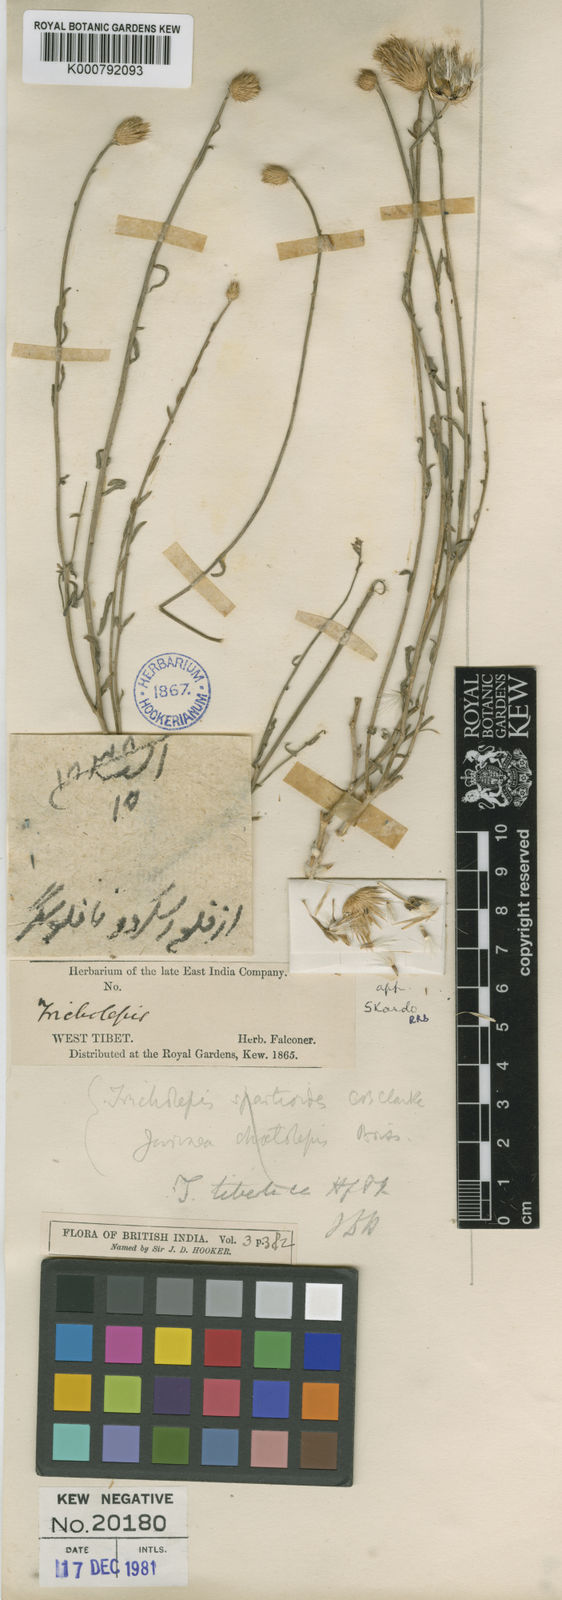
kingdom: Plantae
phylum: Tracheophyta
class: Magnoliopsida
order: Asterales
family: Asteraceae
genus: Tricholepis
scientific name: Tricholepis
